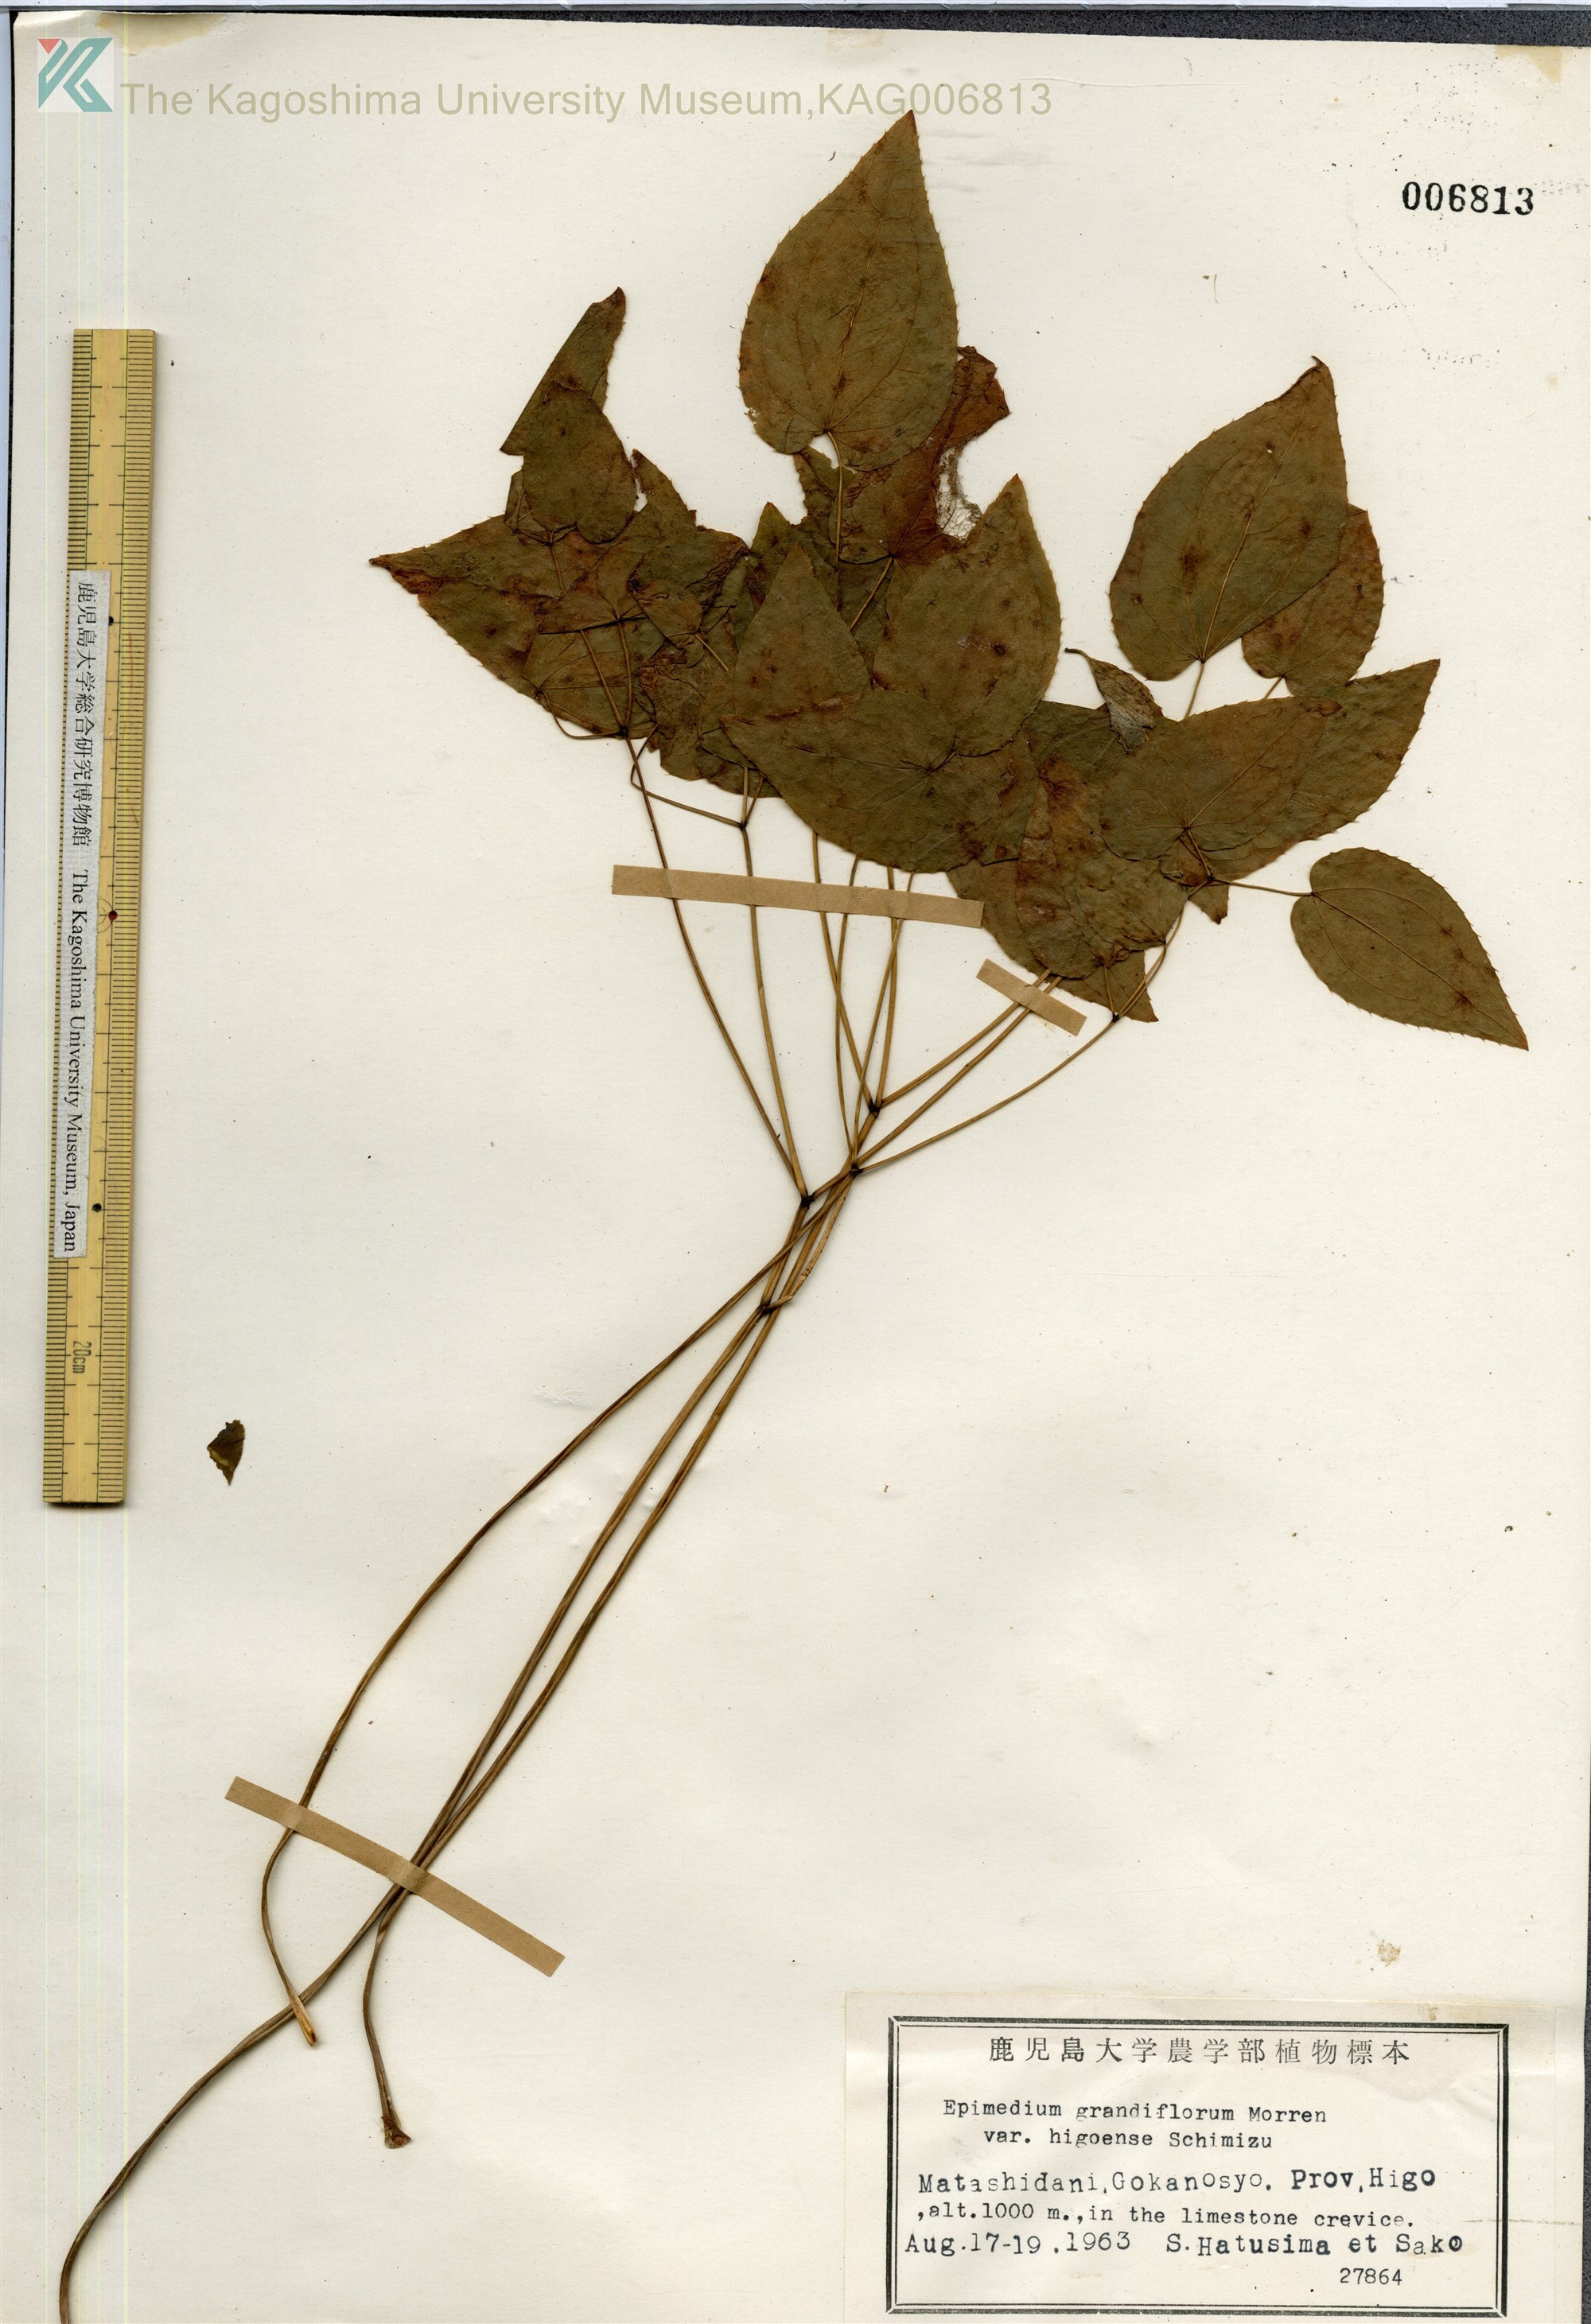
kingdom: Plantae
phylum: Tracheophyta
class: Magnoliopsida
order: Ranunculales
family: Berberidaceae
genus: Epimedium
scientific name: Epimedium grandiflorum
